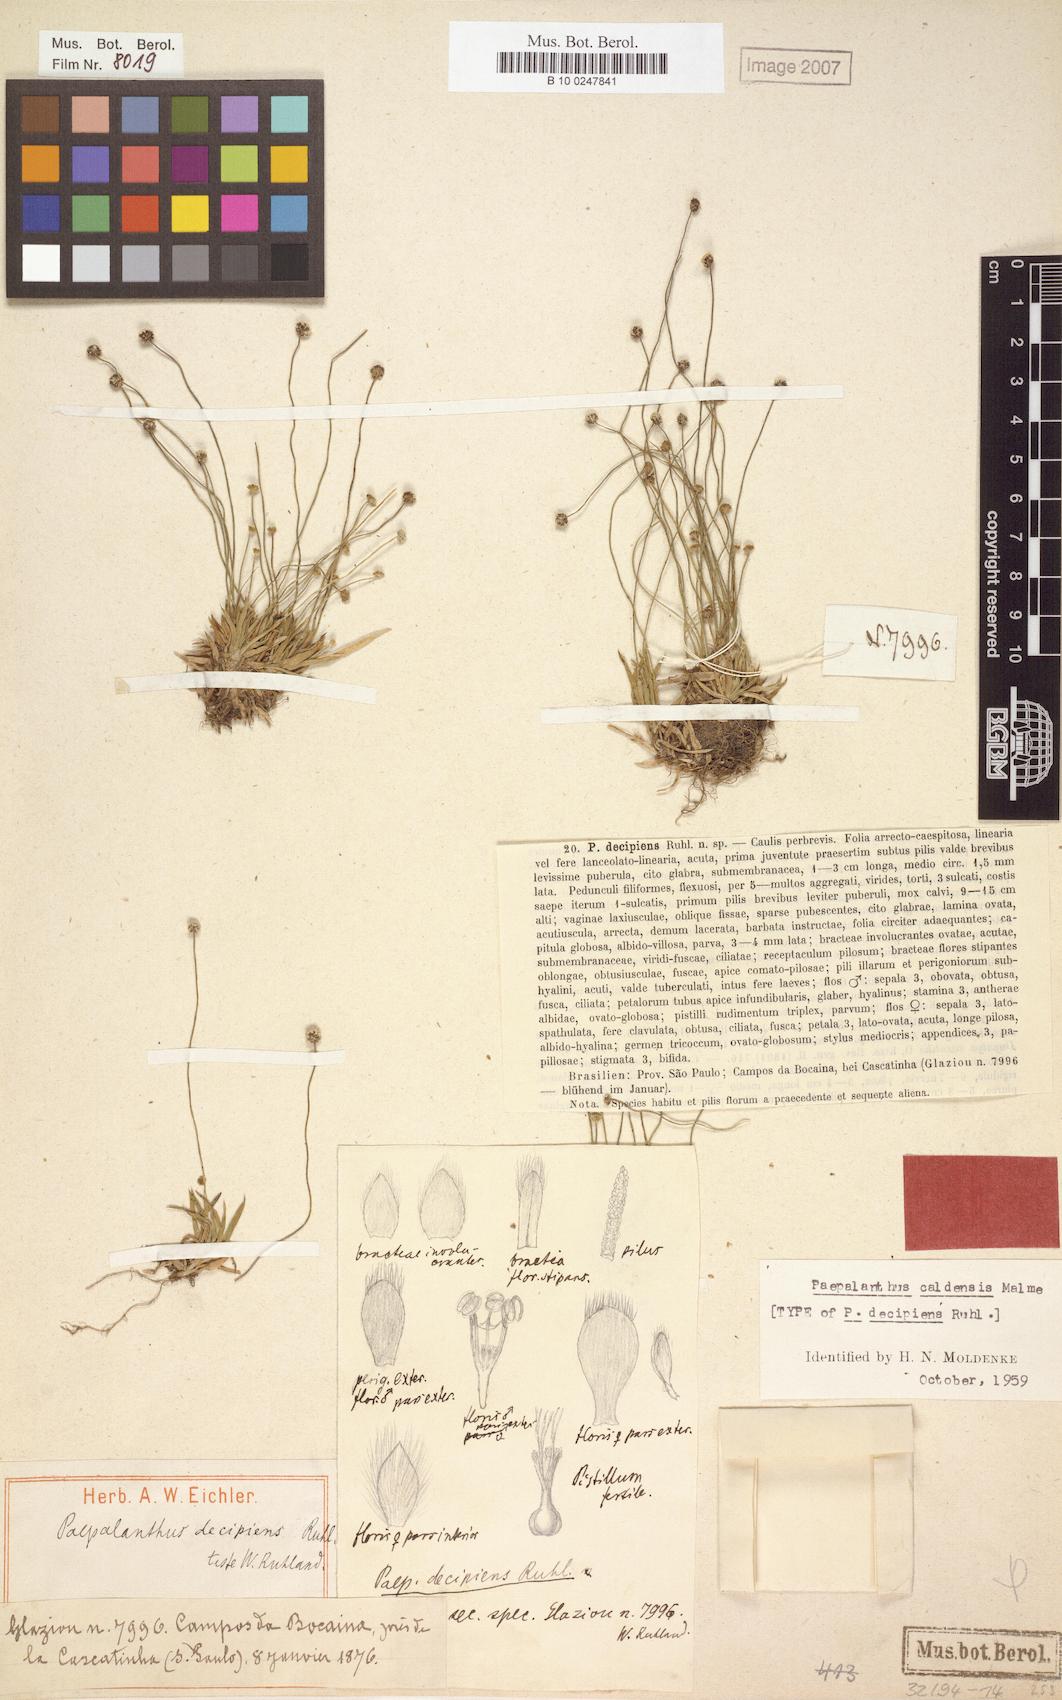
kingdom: Plantae
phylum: Tracheophyta
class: Liliopsida
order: Poales
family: Eriocaulaceae
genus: Paepalanthus
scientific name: Paepalanthus caldensis
